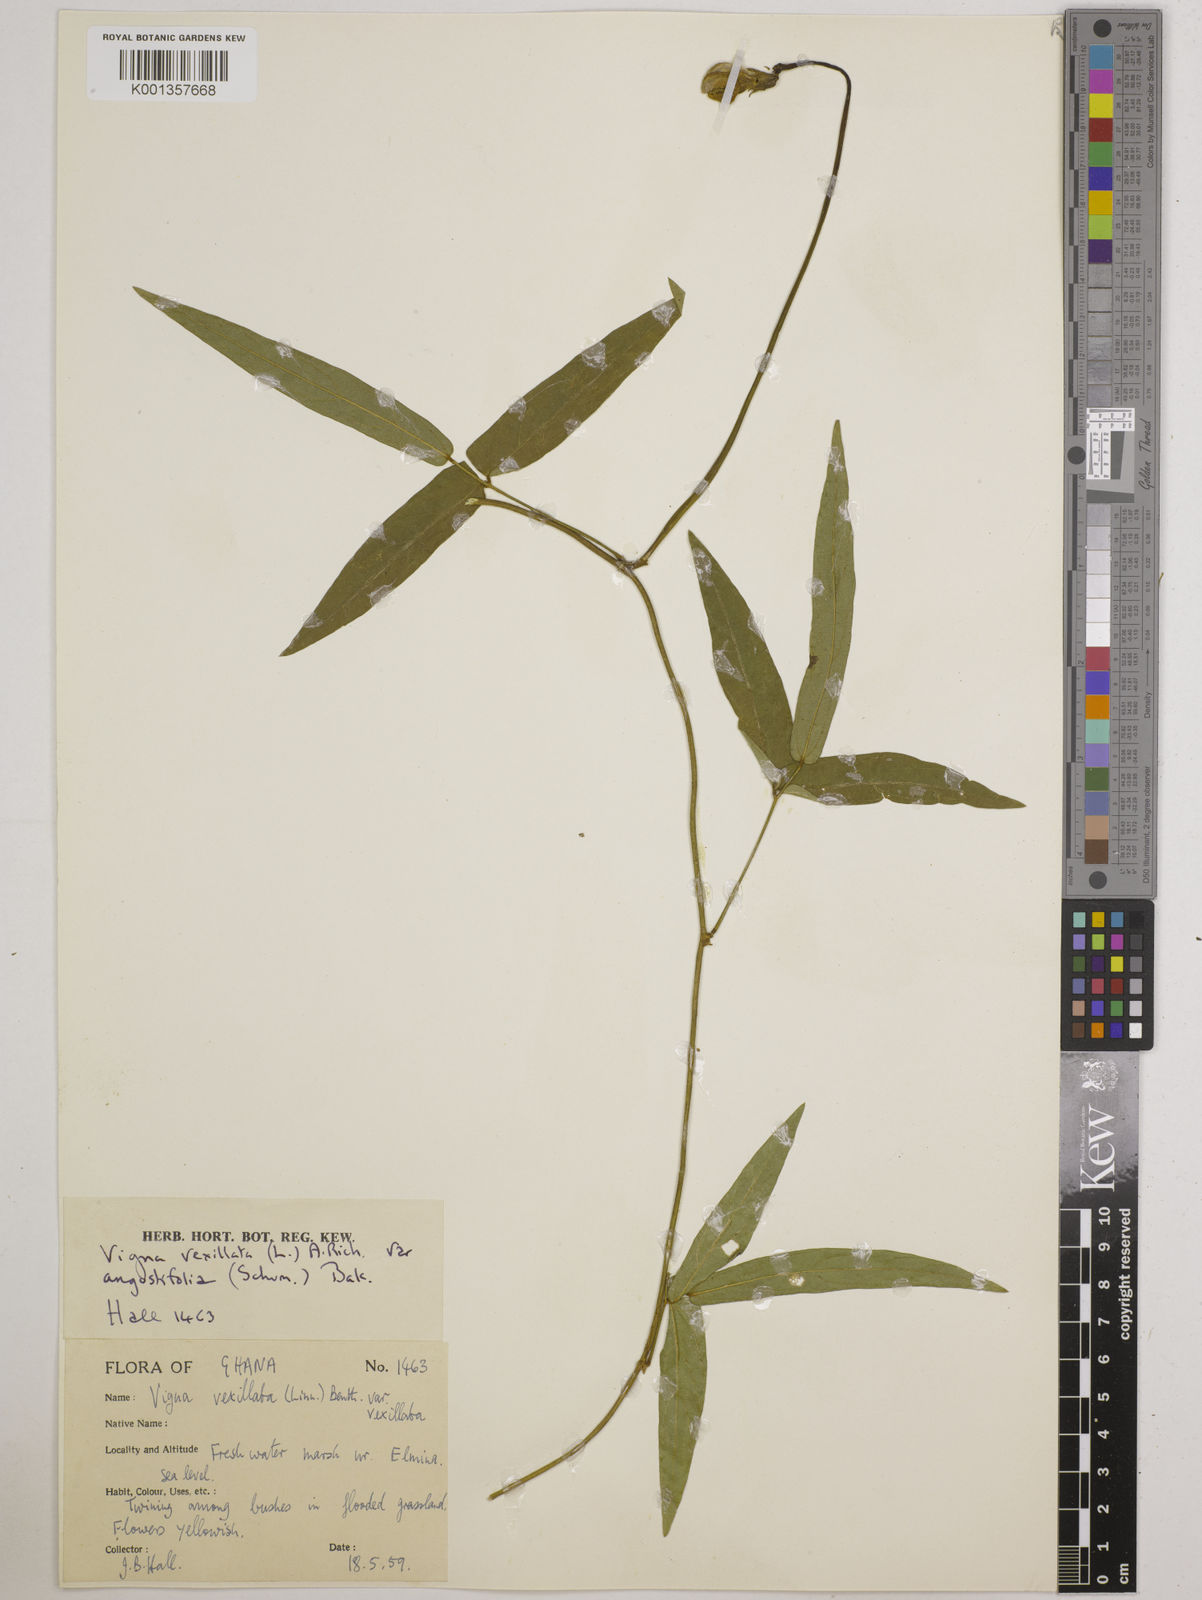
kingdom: Plantae
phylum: Tracheophyta
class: Magnoliopsida
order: Fabales
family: Fabaceae
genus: Vigna
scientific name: Vigna vexillata
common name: Zombi pea
